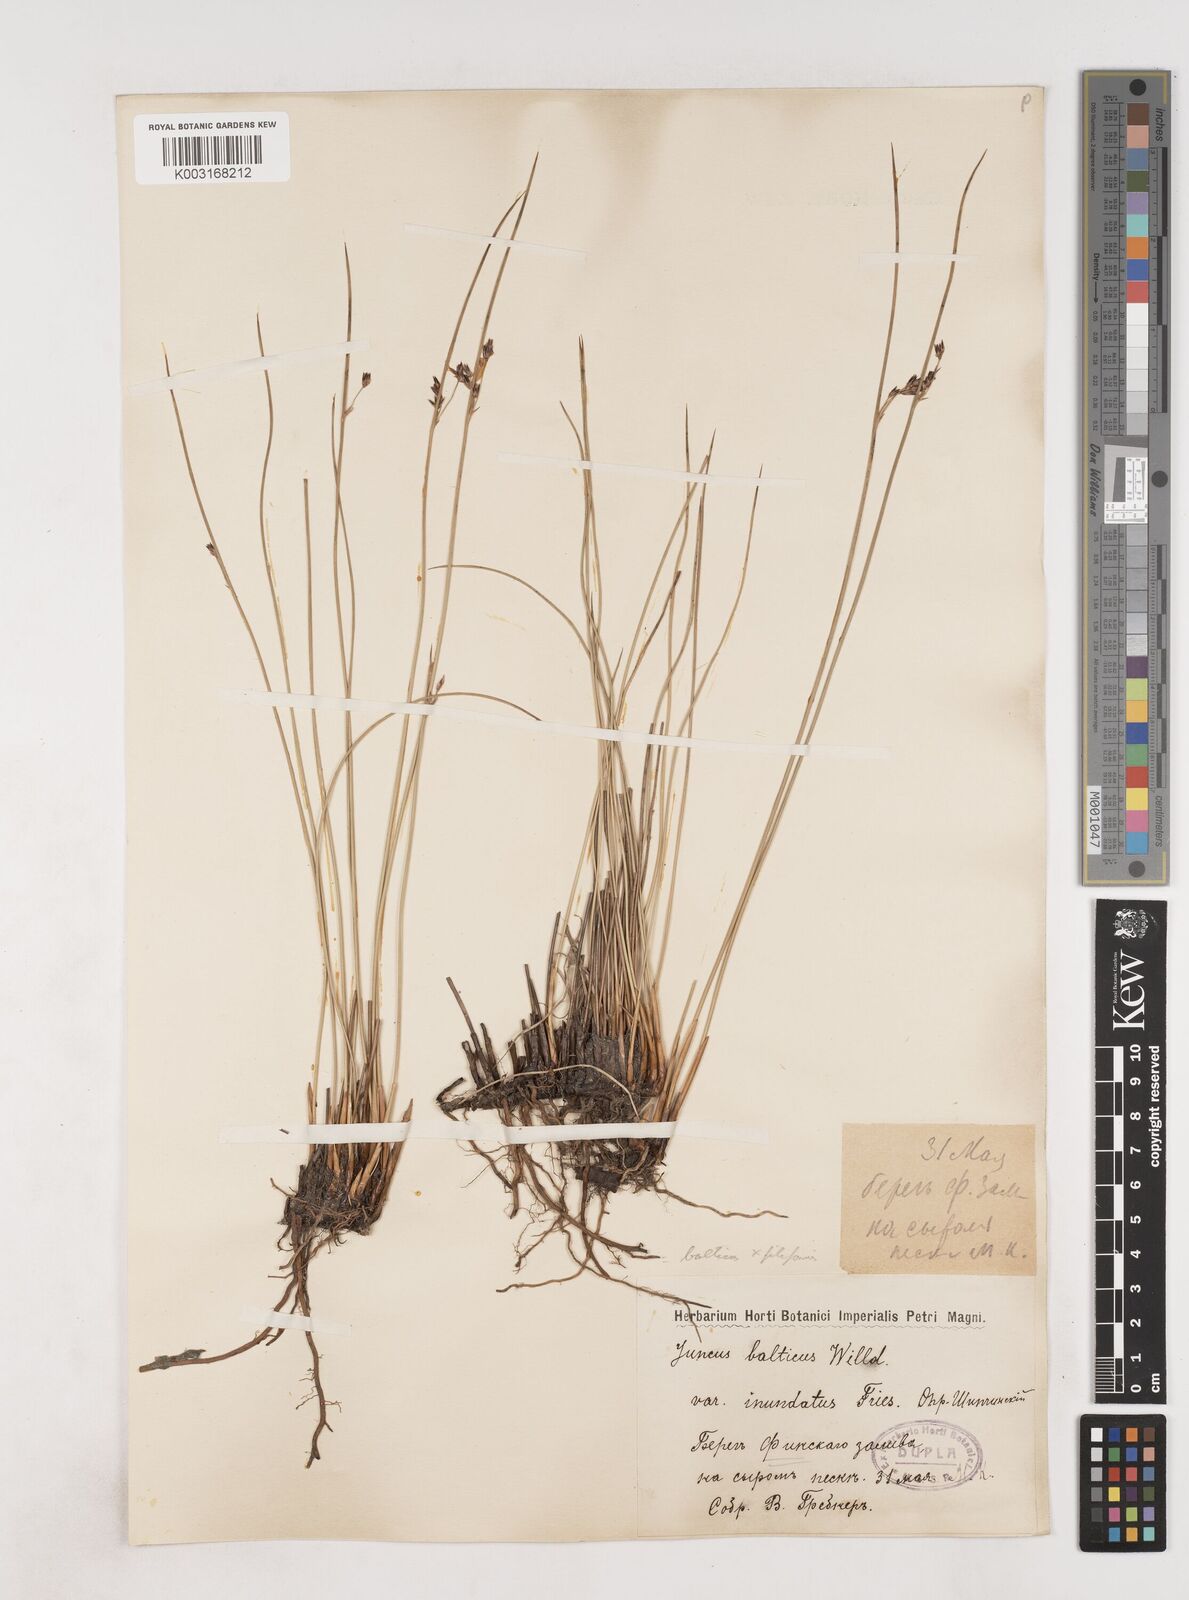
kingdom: Plantae
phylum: Tracheophyta
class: Liliopsida
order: Poales
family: Juncaceae
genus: Juncus
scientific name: Juncus balticus
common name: Baltic rush
